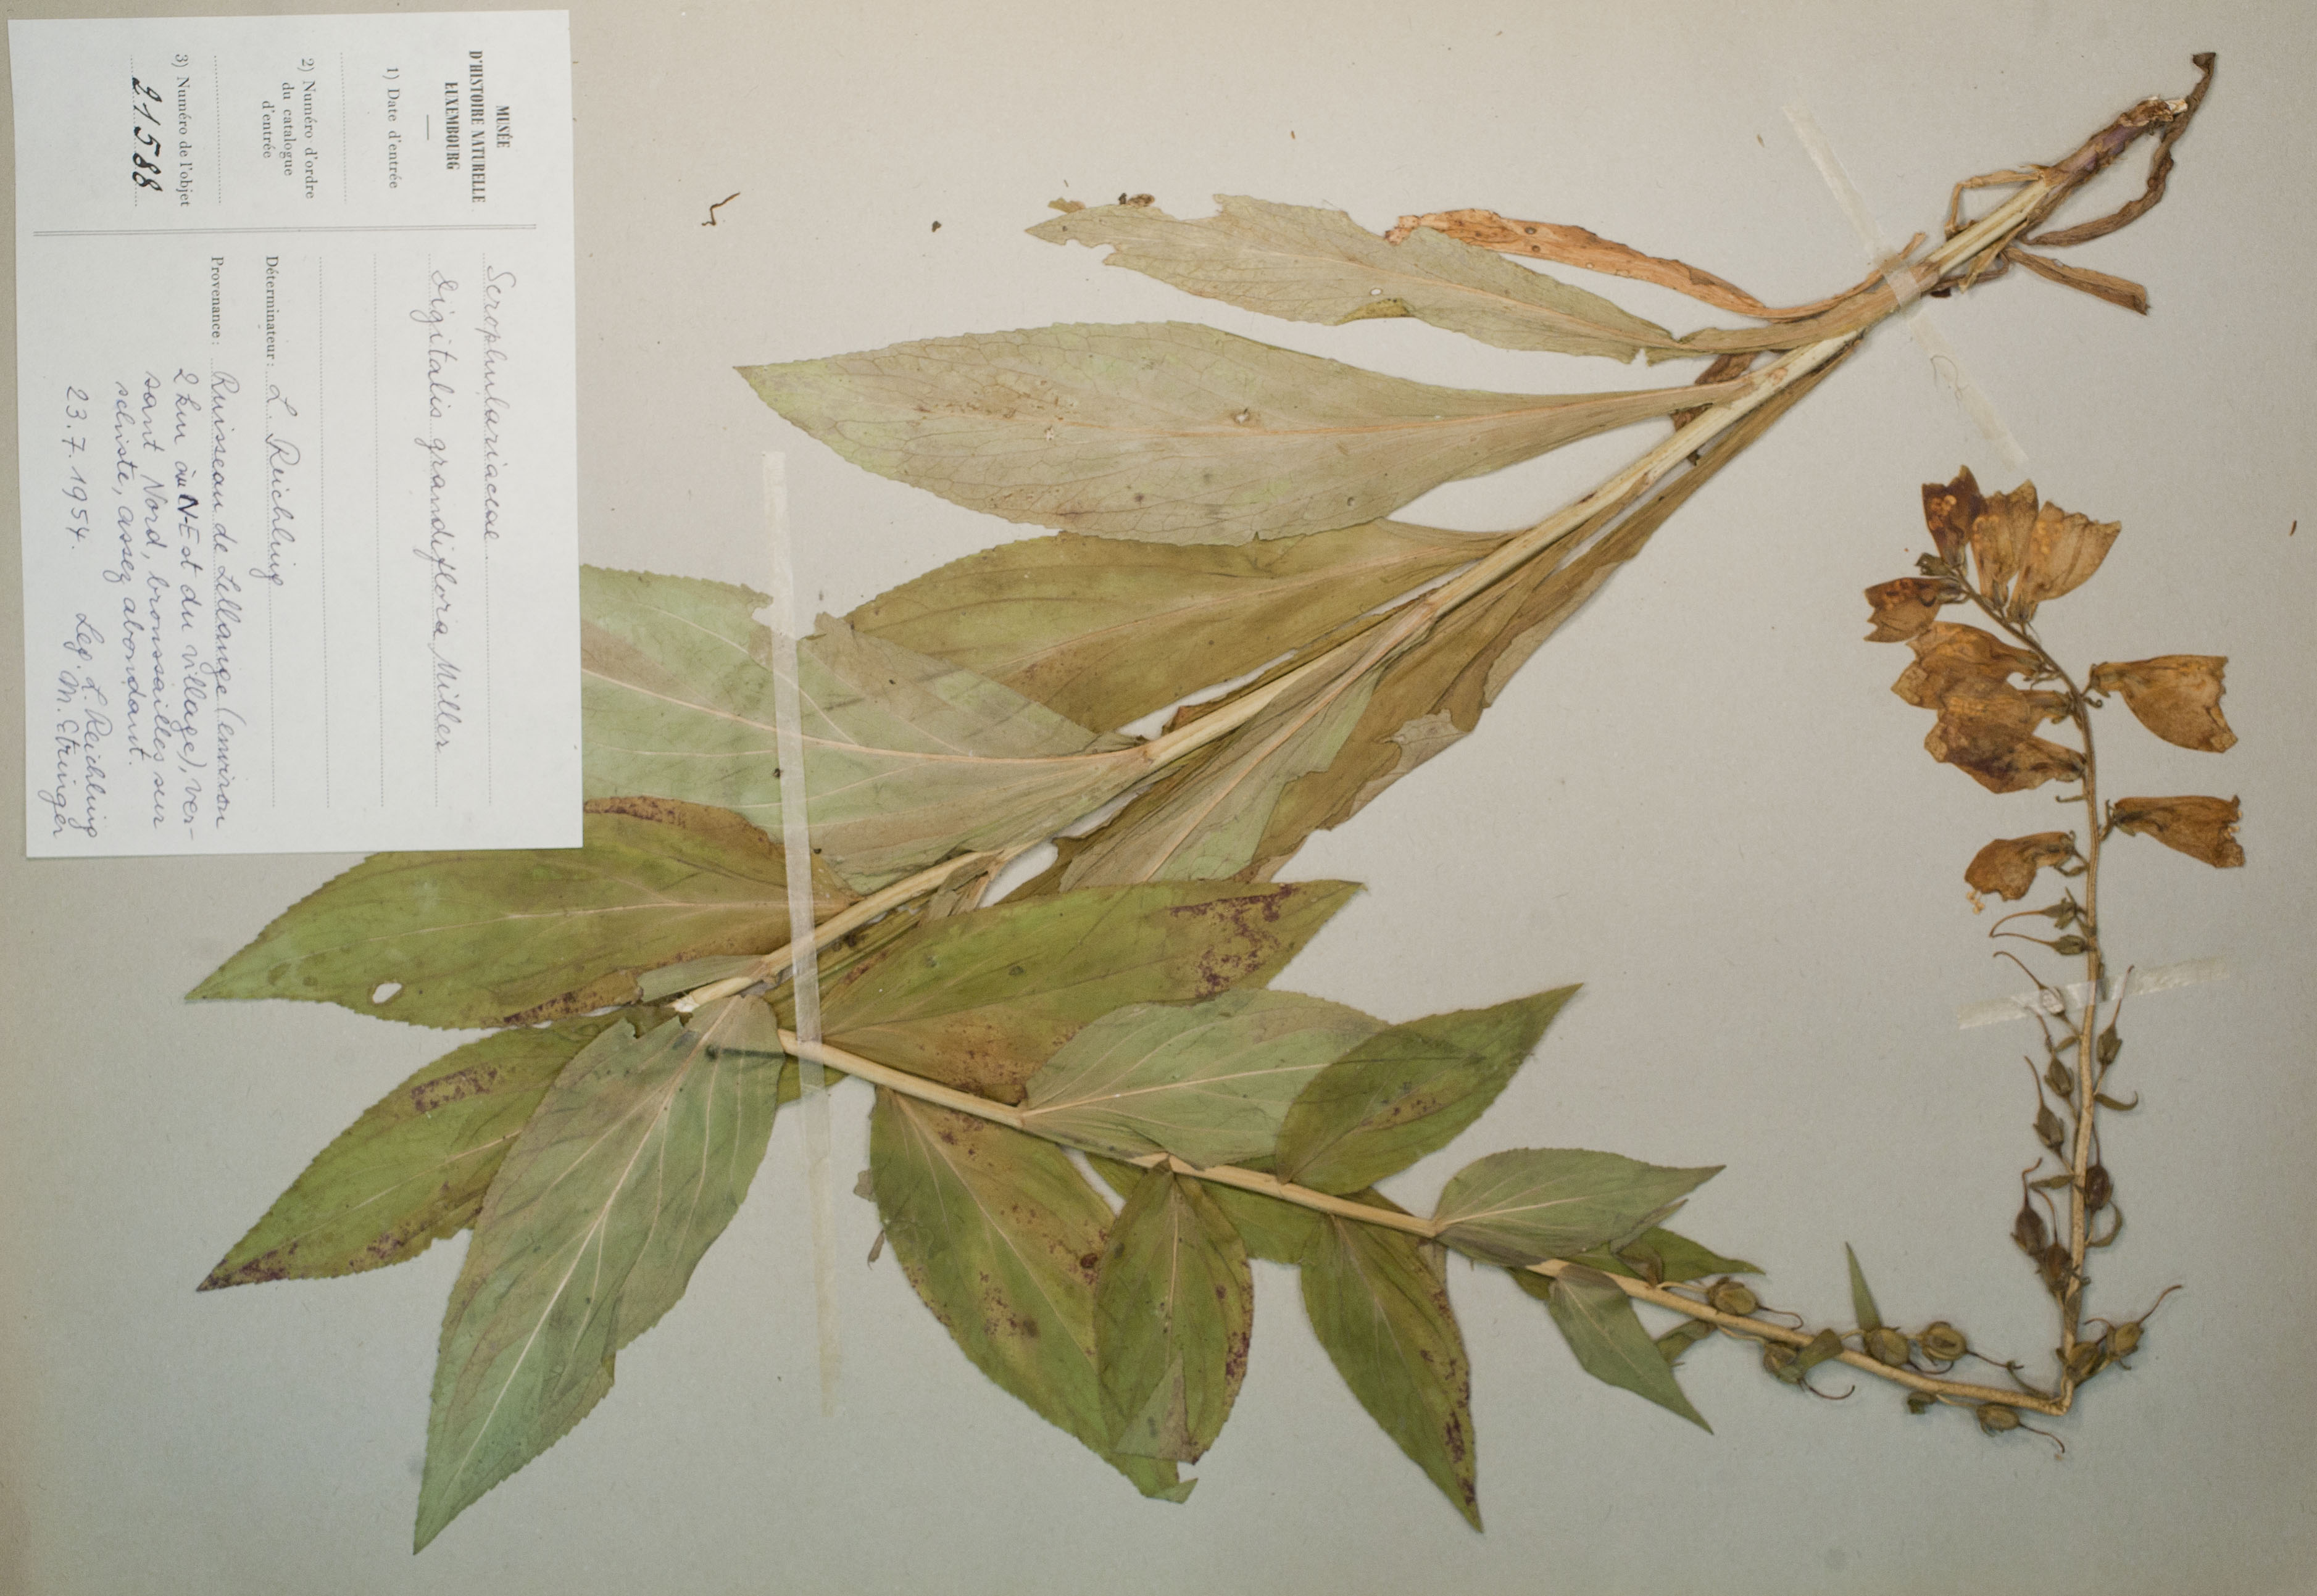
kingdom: Plantae
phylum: Tracheophyta
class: Magnoliopsida
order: Lamiales
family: Plantaginaceae
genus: Digitalis
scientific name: Digitalis grandiflora
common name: Yellow foxglove
